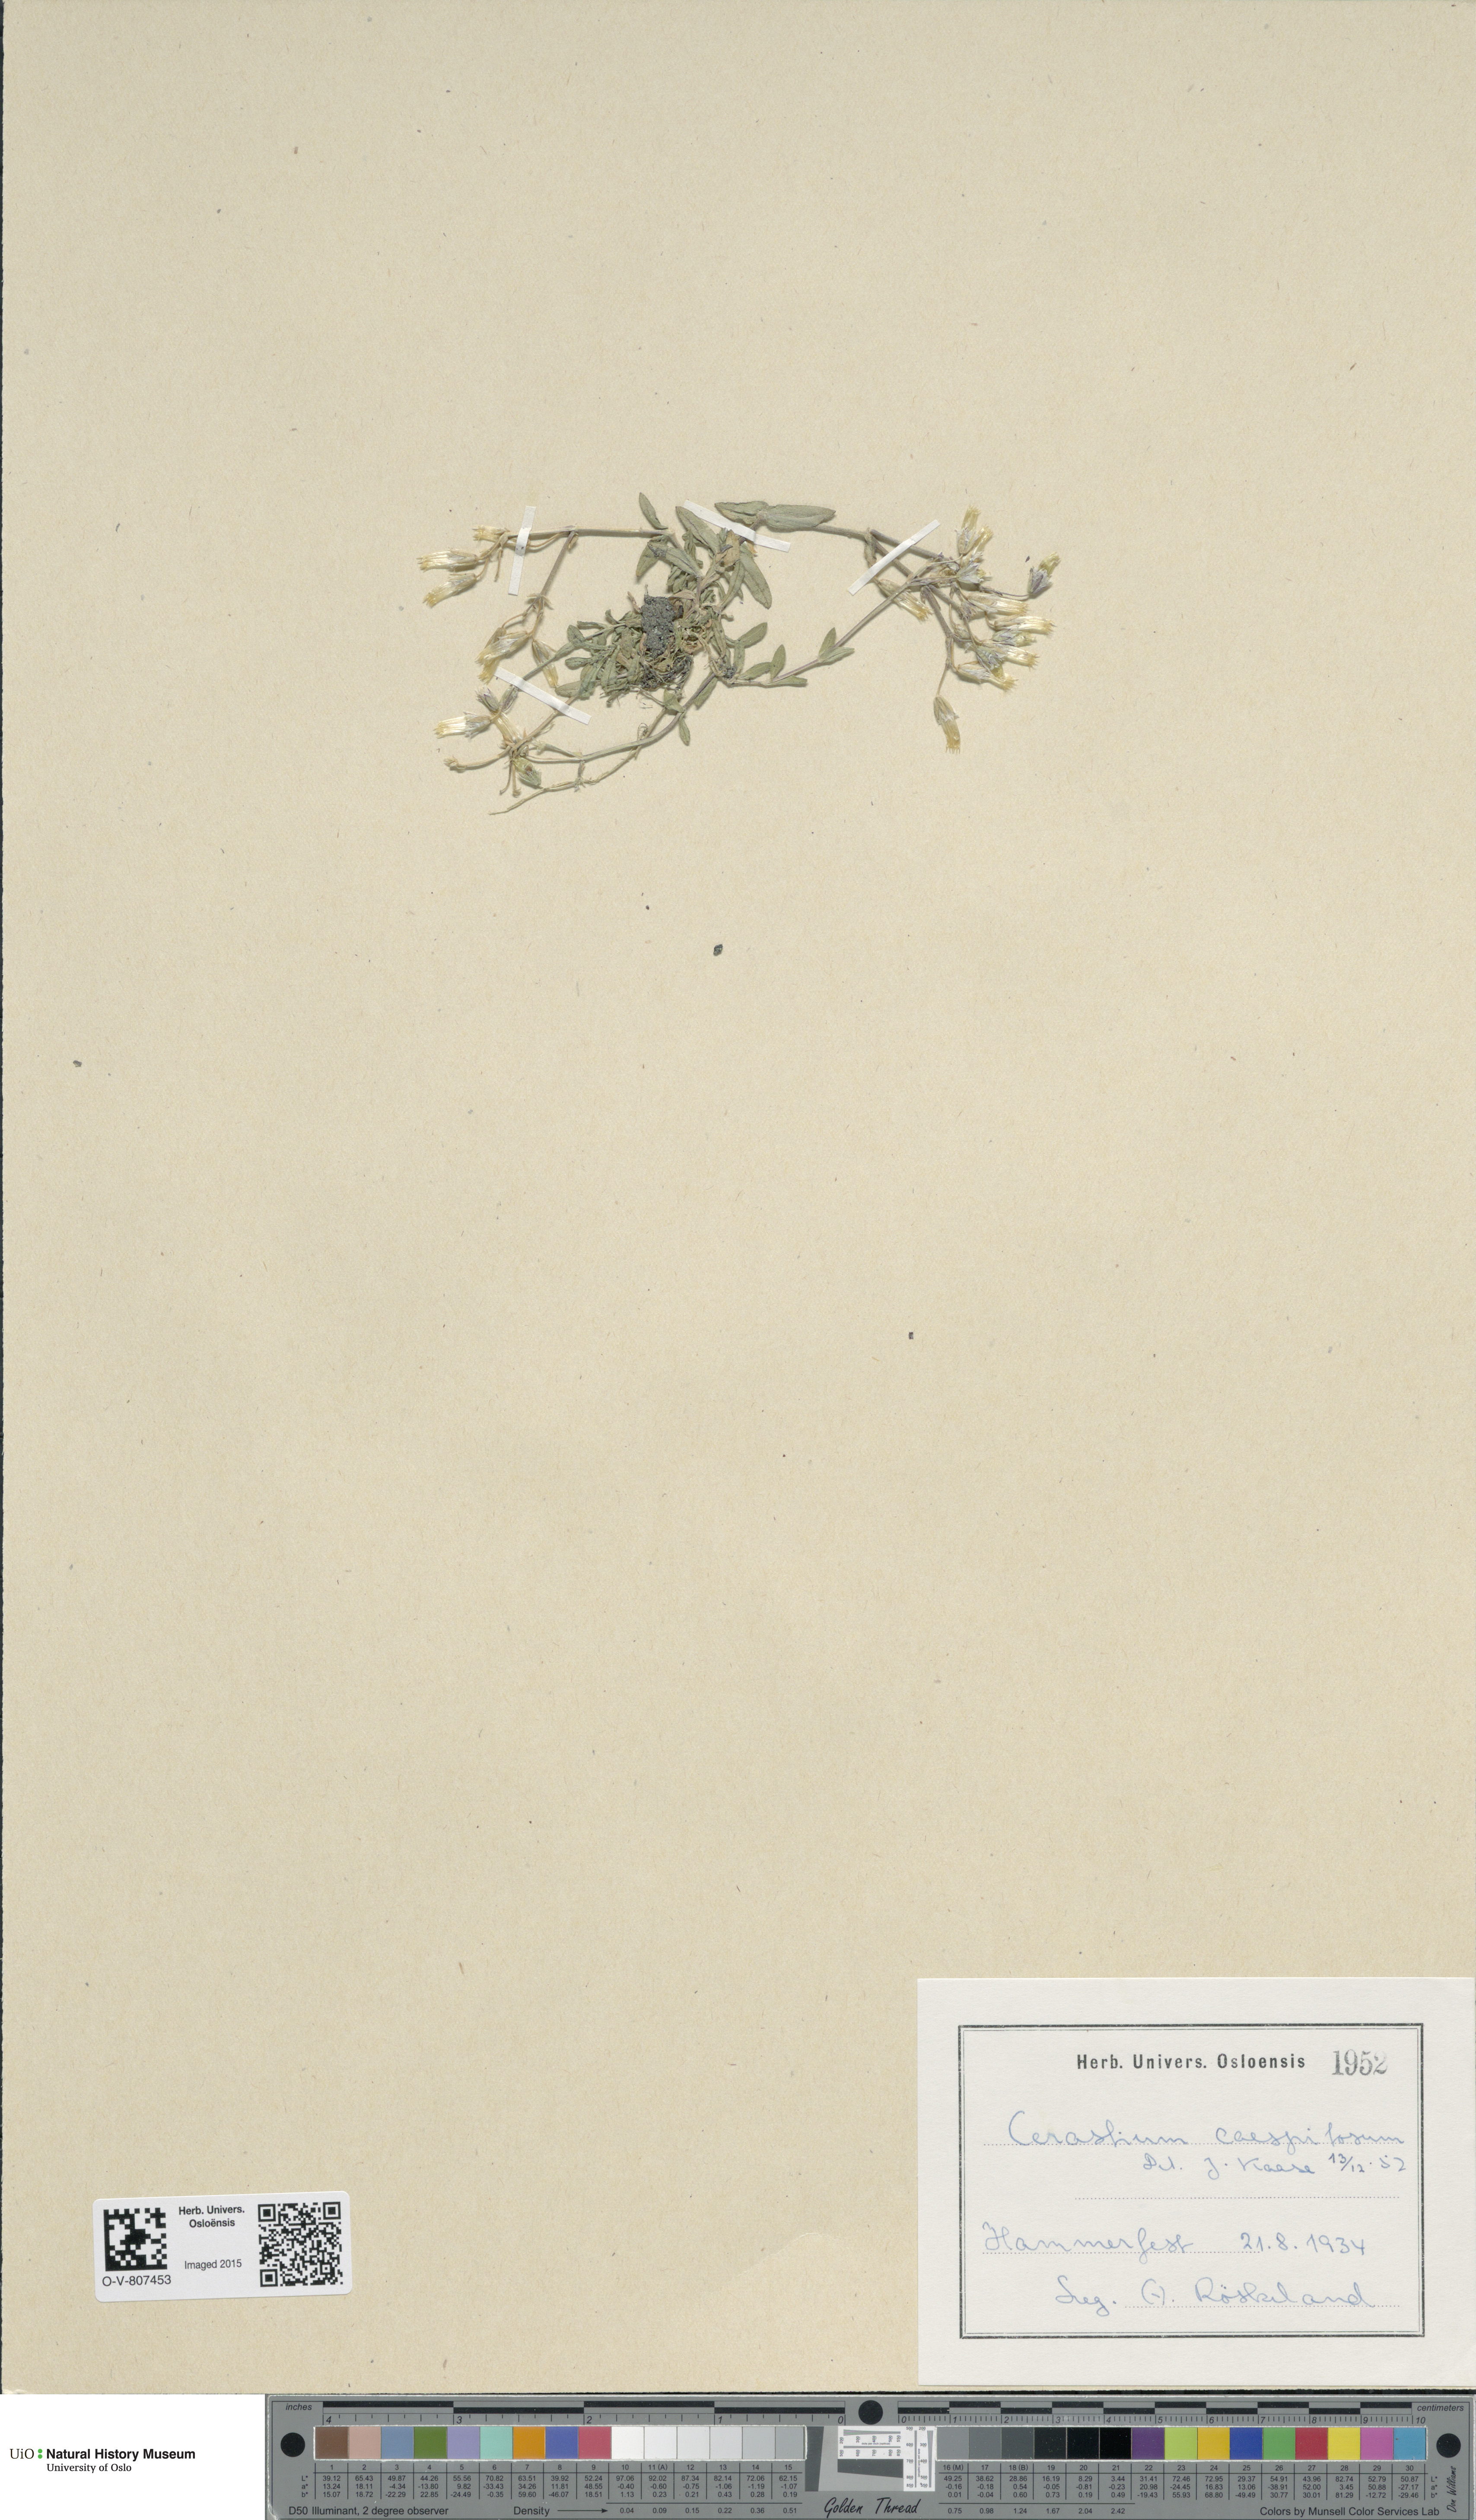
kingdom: Plantae
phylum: Tracheophyta
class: Magnoliopsida
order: Caryophyllales
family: Caryophyllaceae
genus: Cerastium
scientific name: Cerastium holosteoides
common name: Big chickweed
